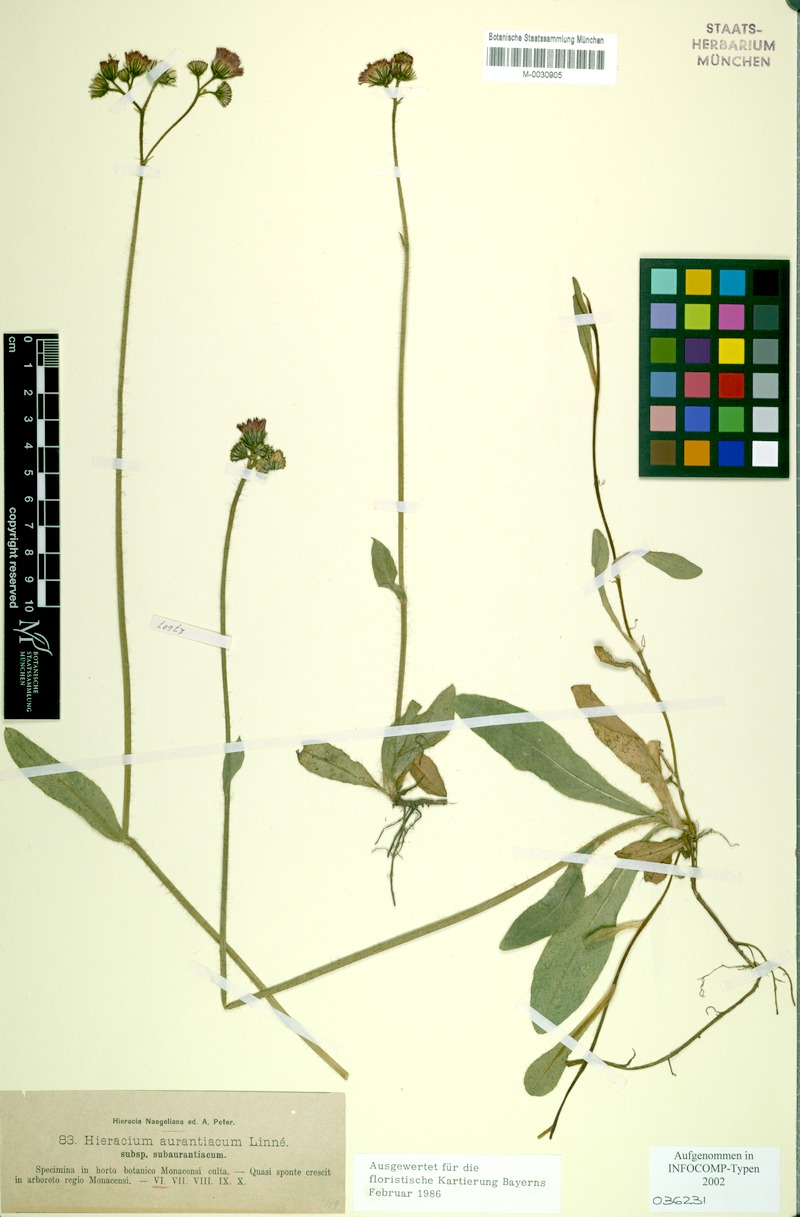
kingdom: Plantae
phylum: Tracheophyta
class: Magnoliopsida
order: Asterales
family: Asteraceae
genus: Pilosella
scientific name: Pilosella aurantiaca
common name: Fox-and-cubs
